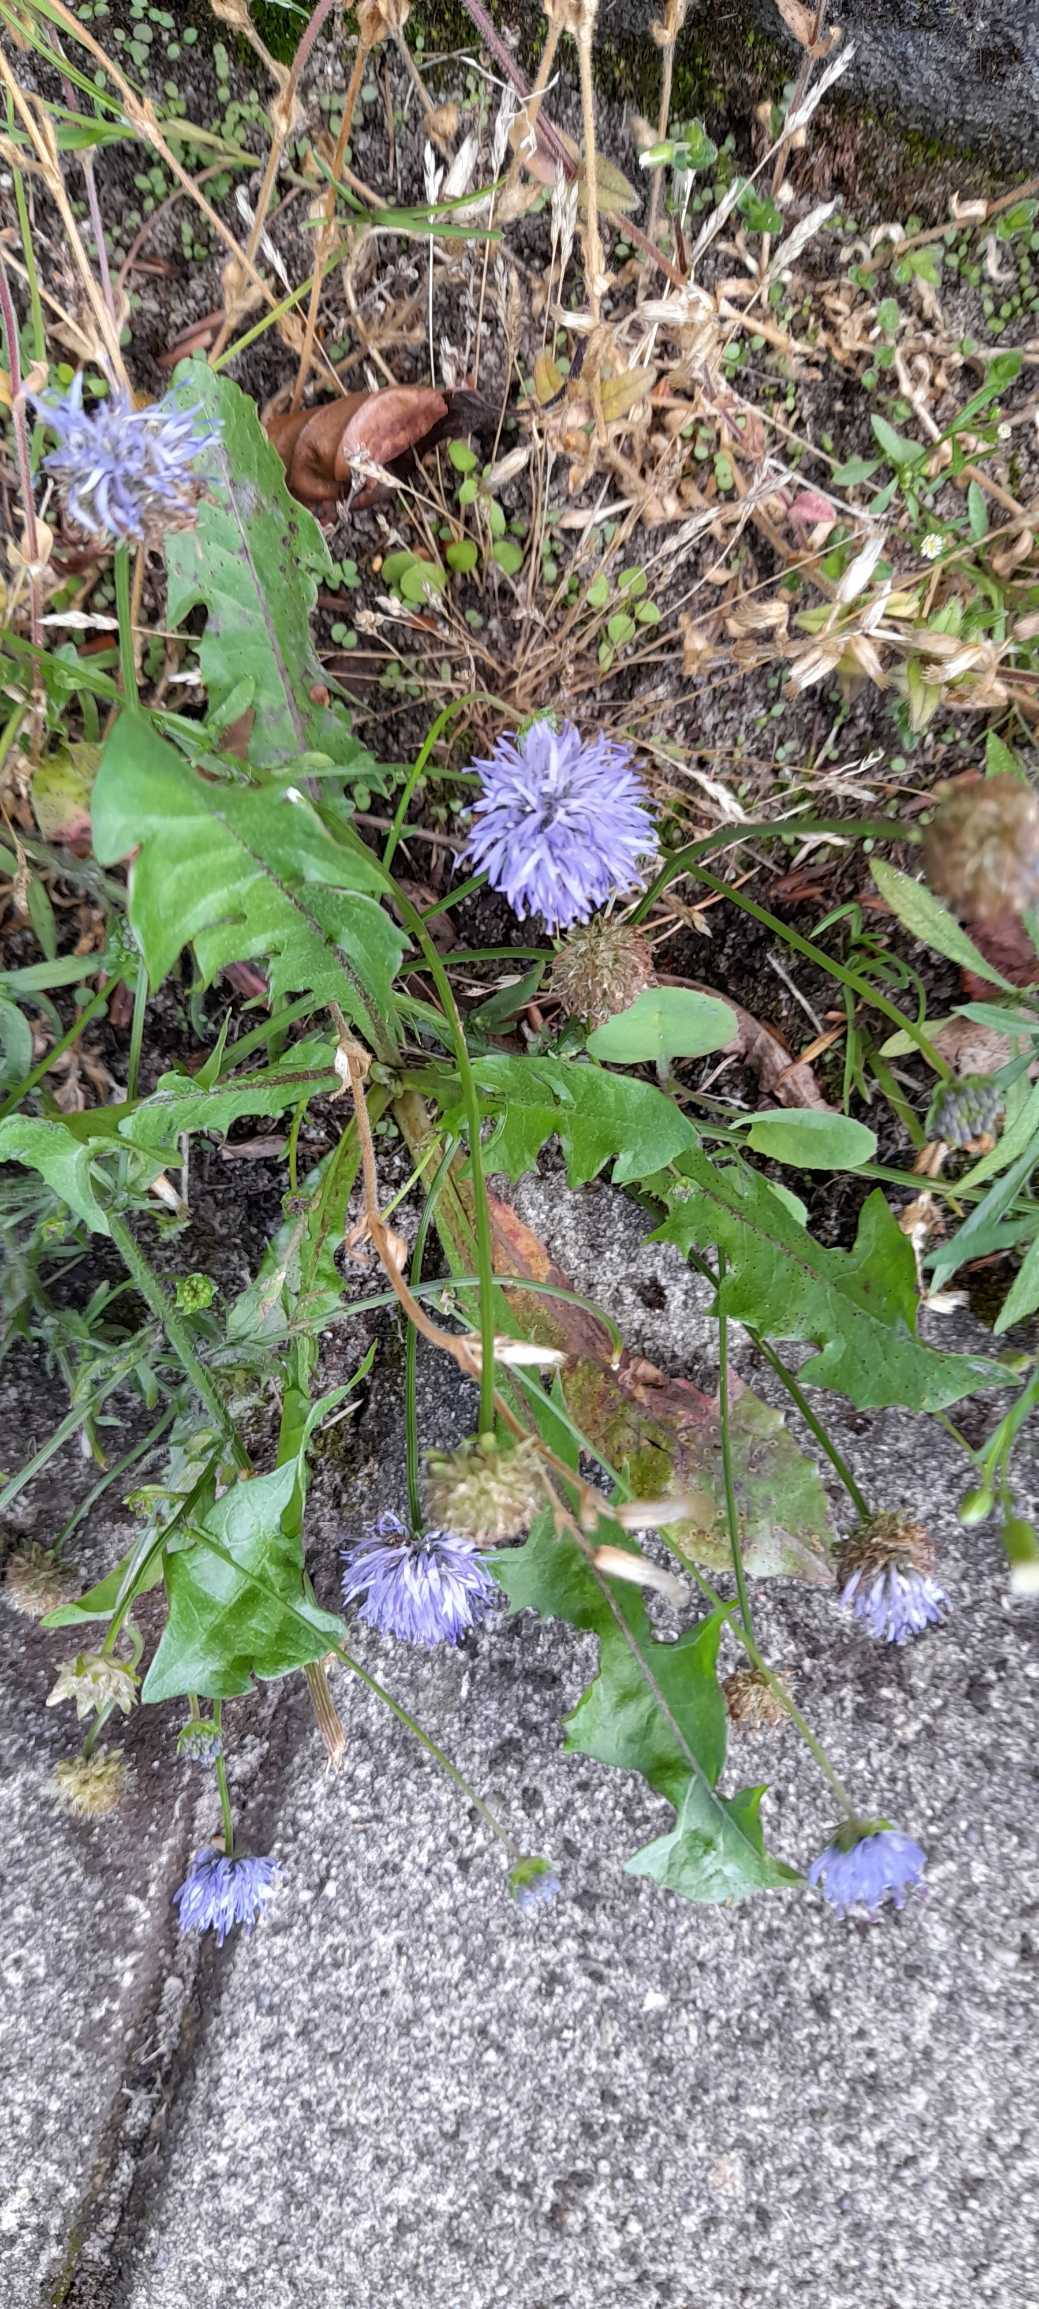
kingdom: Plantae
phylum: Tracheophyta
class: Magnoliopsida
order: Asterales
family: Campanulaceae
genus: Jasione
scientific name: Jasione montana
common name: Blåmunke
